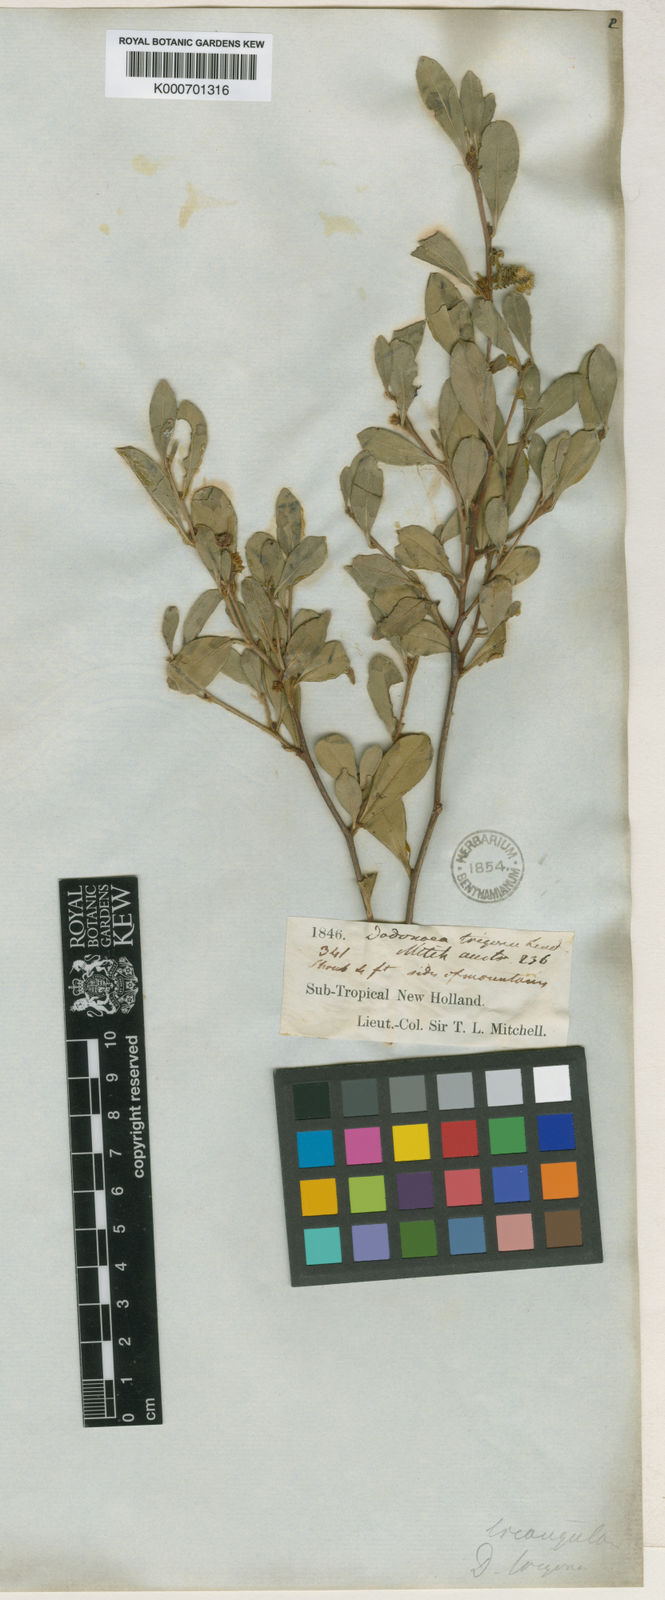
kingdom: Plantae
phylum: Tracheophyta
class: Magnoliopsida
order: Sapindales
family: Sapindaceae
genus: Dodonaea
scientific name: Dodonaea triangularis
